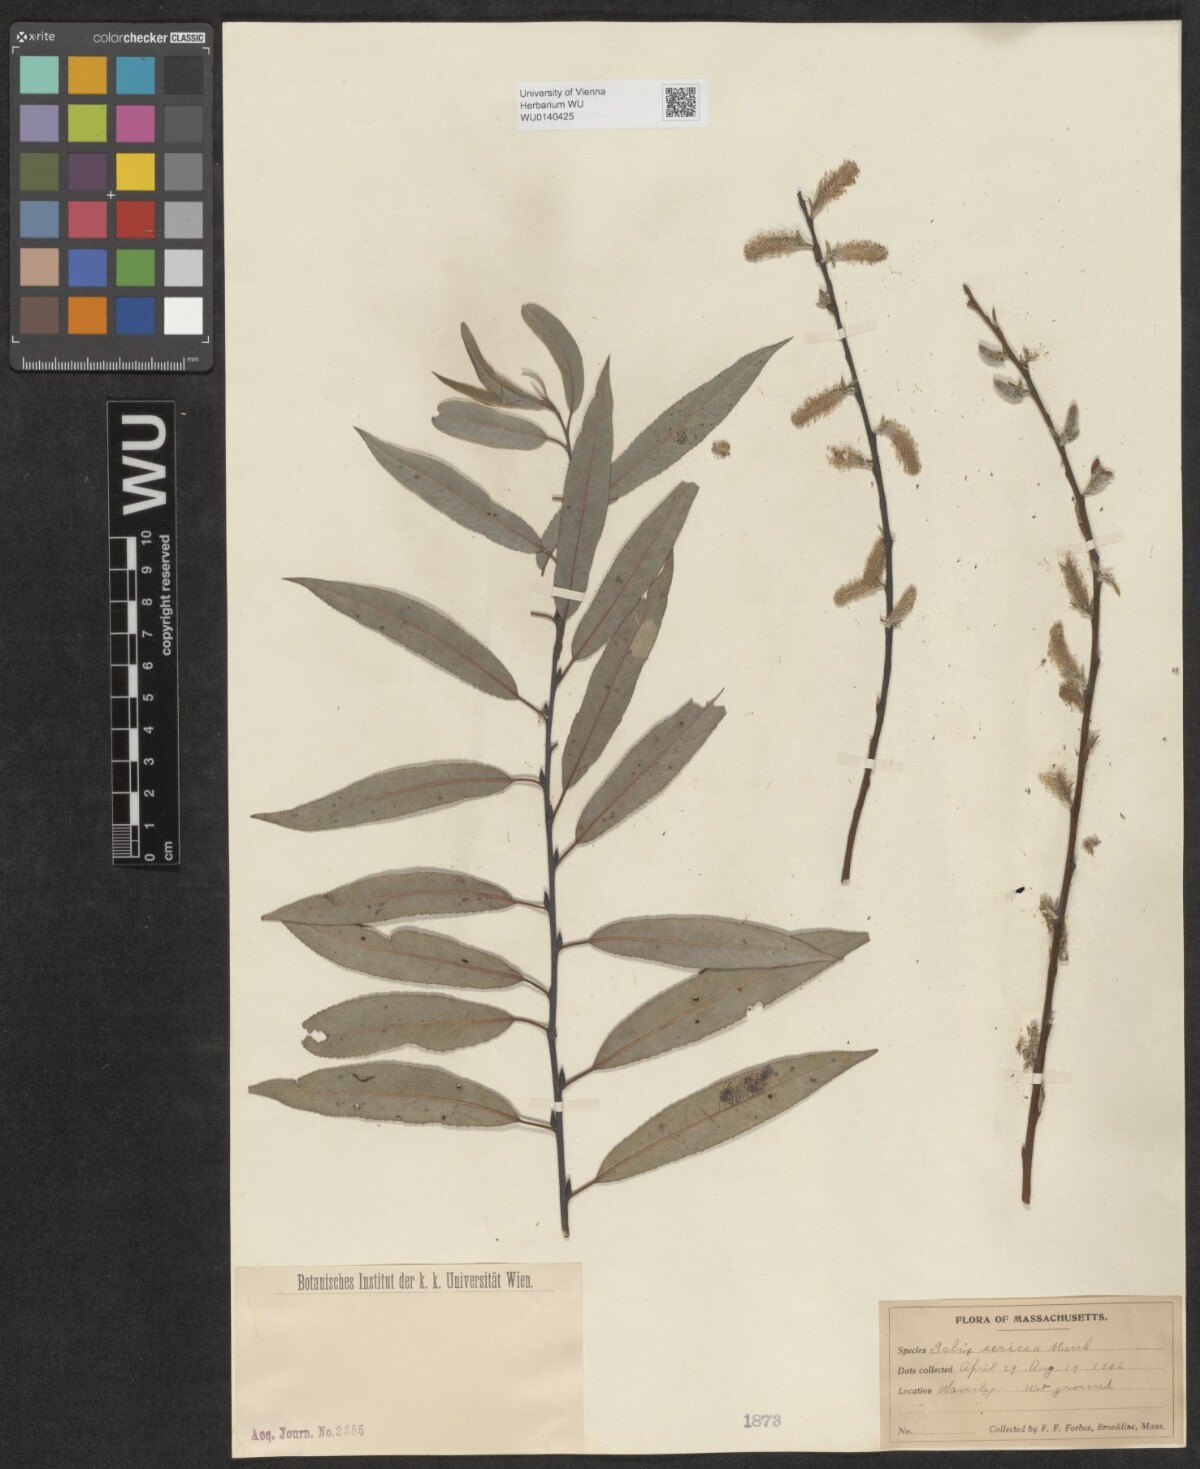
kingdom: Plantae
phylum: Tracheophyta
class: Magnoliopsida
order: Malpighiales
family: Salicaceae
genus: Salix
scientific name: Salix sericea
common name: Silky willow
